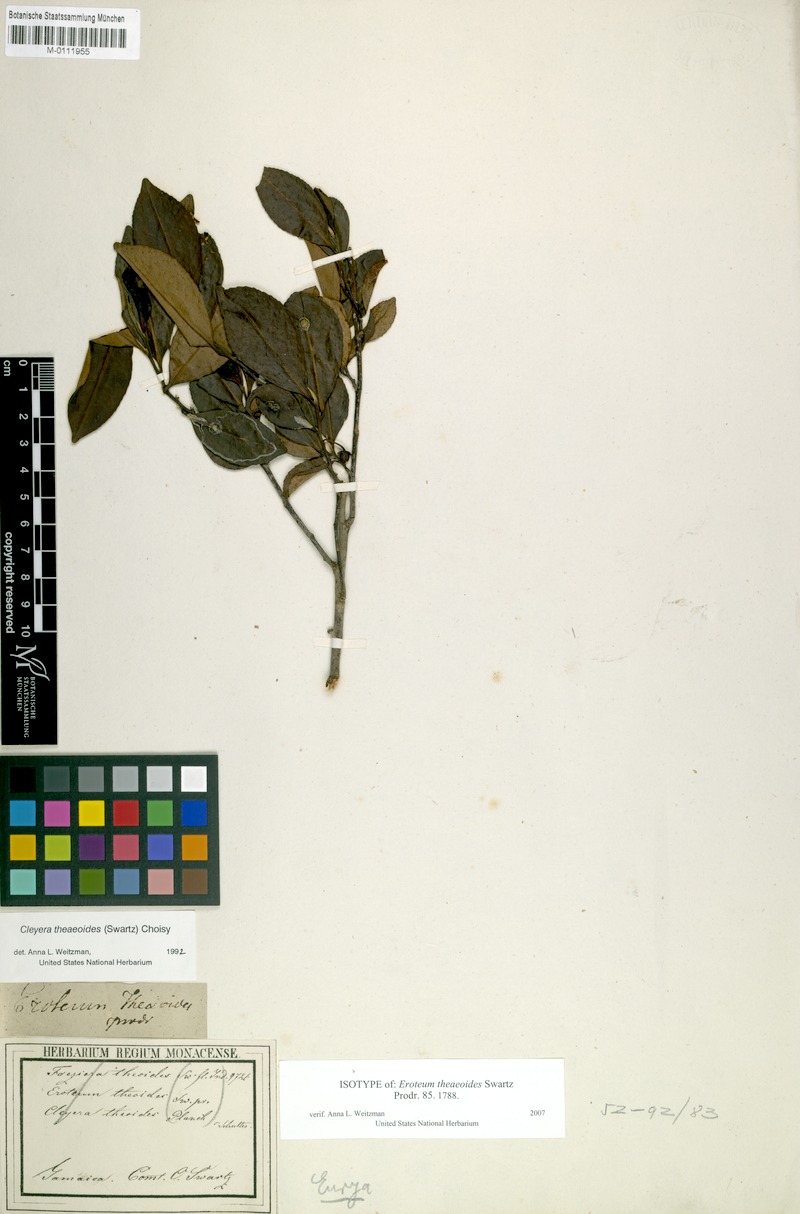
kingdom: Plantae
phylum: Tracheophyta
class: Magnoliopsida
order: Ericales
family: Pentaphylacaceae
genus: Cleyera
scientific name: Cleyera theaeoides
